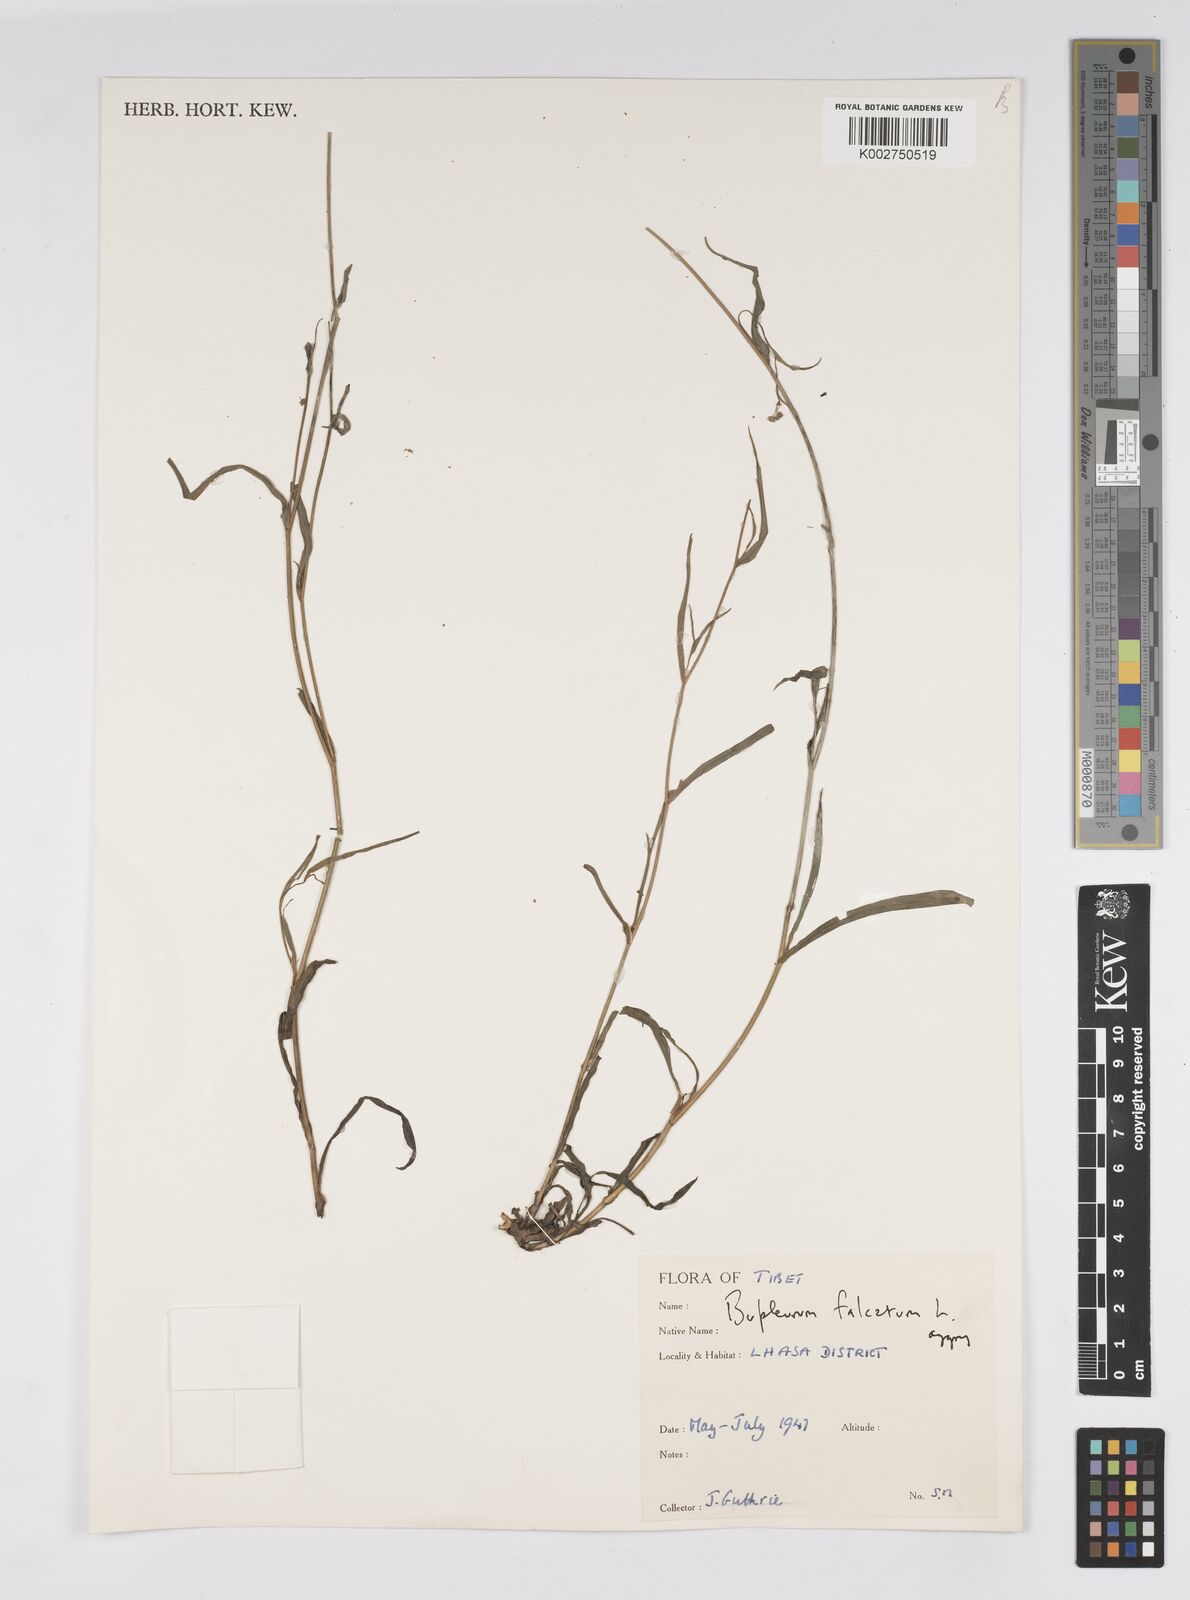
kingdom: Plantae
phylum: Tracheophyta
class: Magnoliopsida
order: Apiales
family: Apiaceae
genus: Bupleurum
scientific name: Bupleurum krylovianum
